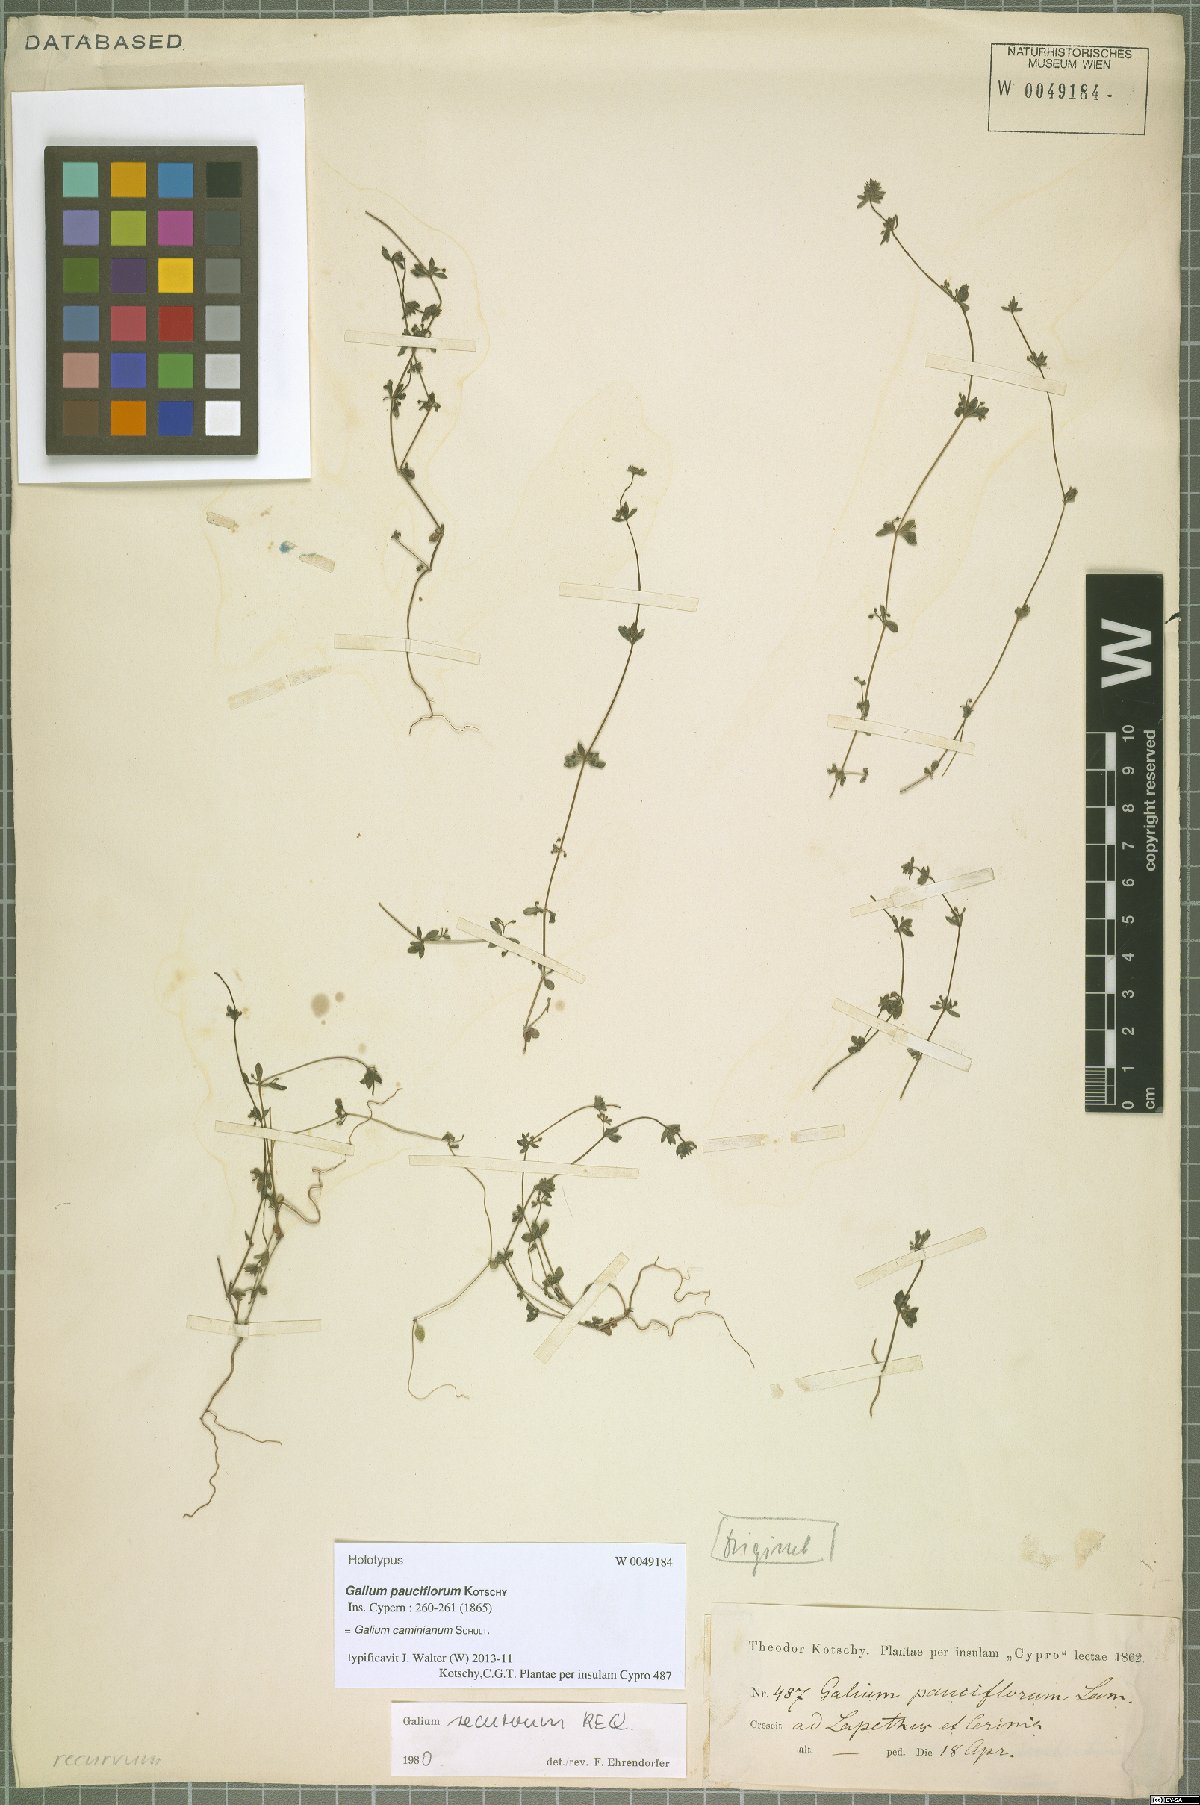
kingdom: Plantae
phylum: Tracheophyta
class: Magnoliopsida
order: Gentianales
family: Rubiaceae
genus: Galium
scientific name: Galium caminianum
